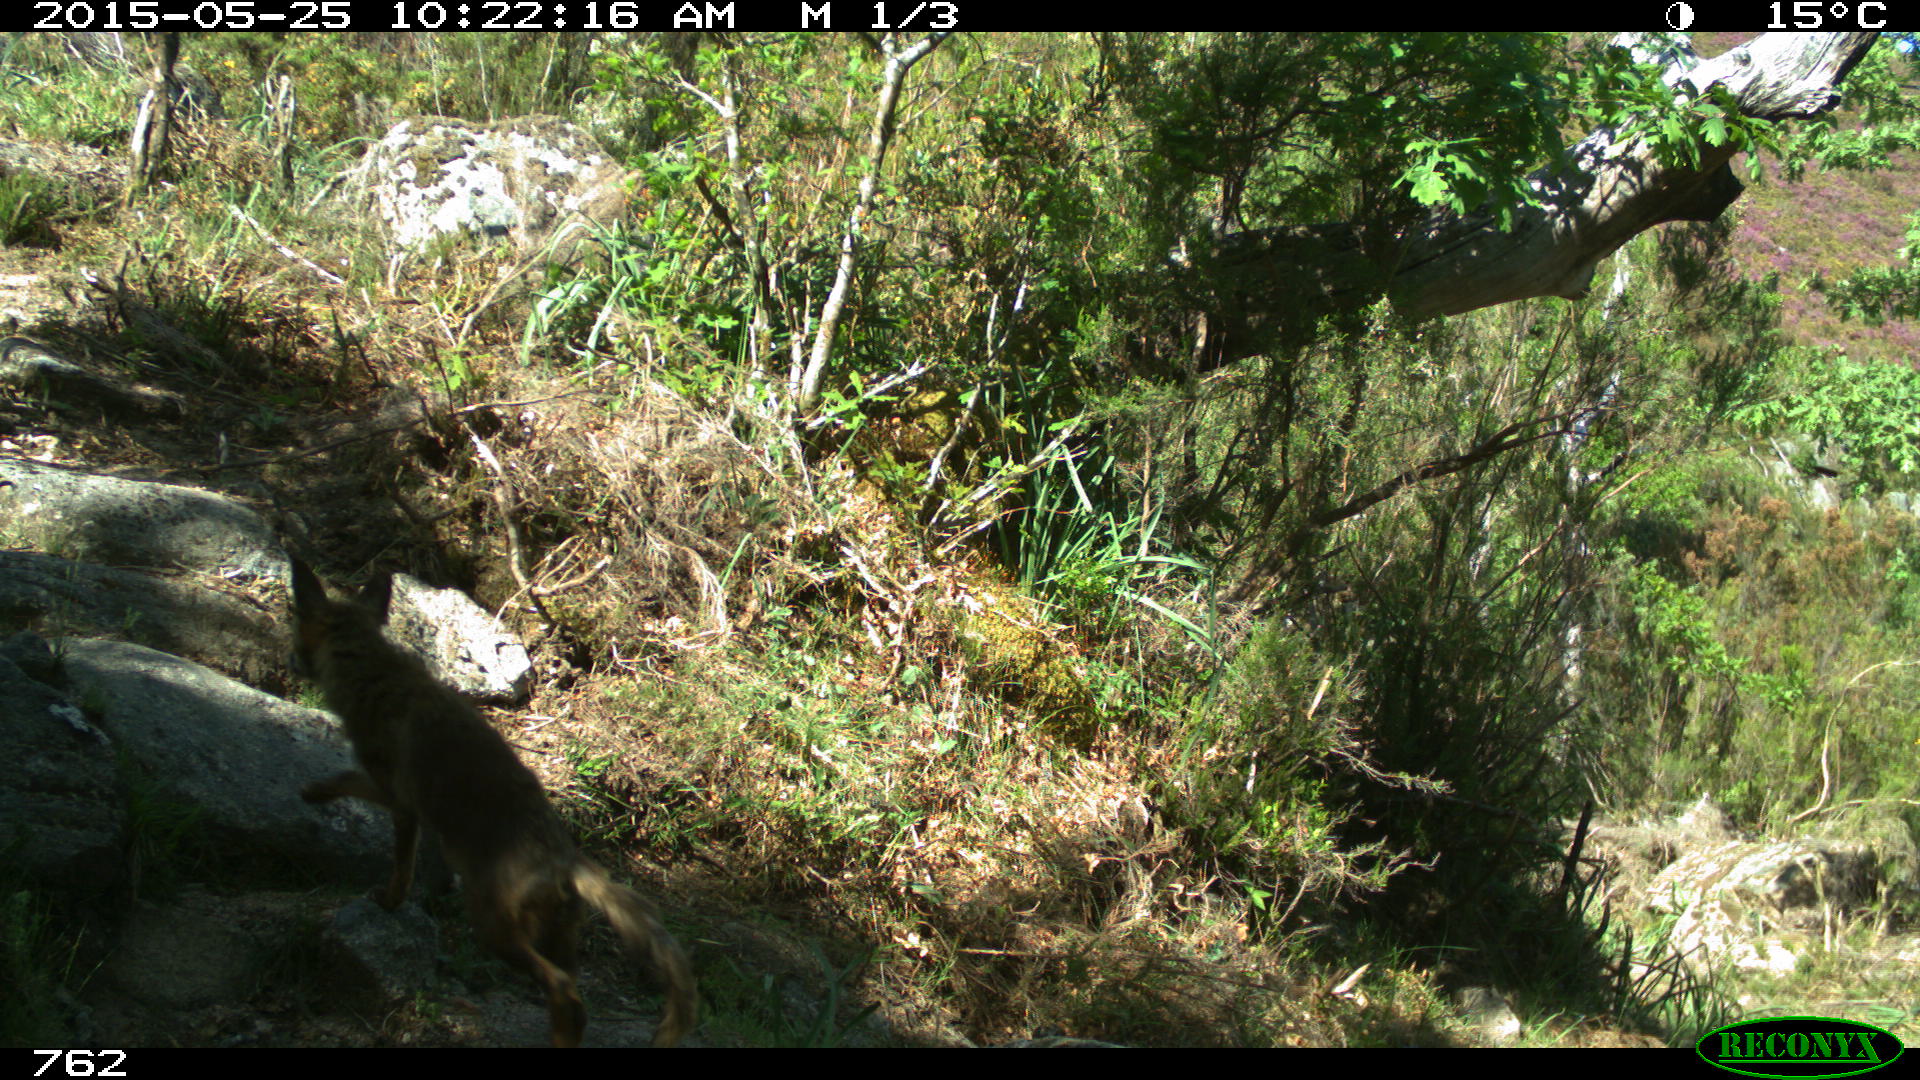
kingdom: Animalia
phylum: Chordata
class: Mammalia
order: Carnivora
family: Canidae
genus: Vulpes
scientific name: Vulpes vulpes
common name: Red fox
